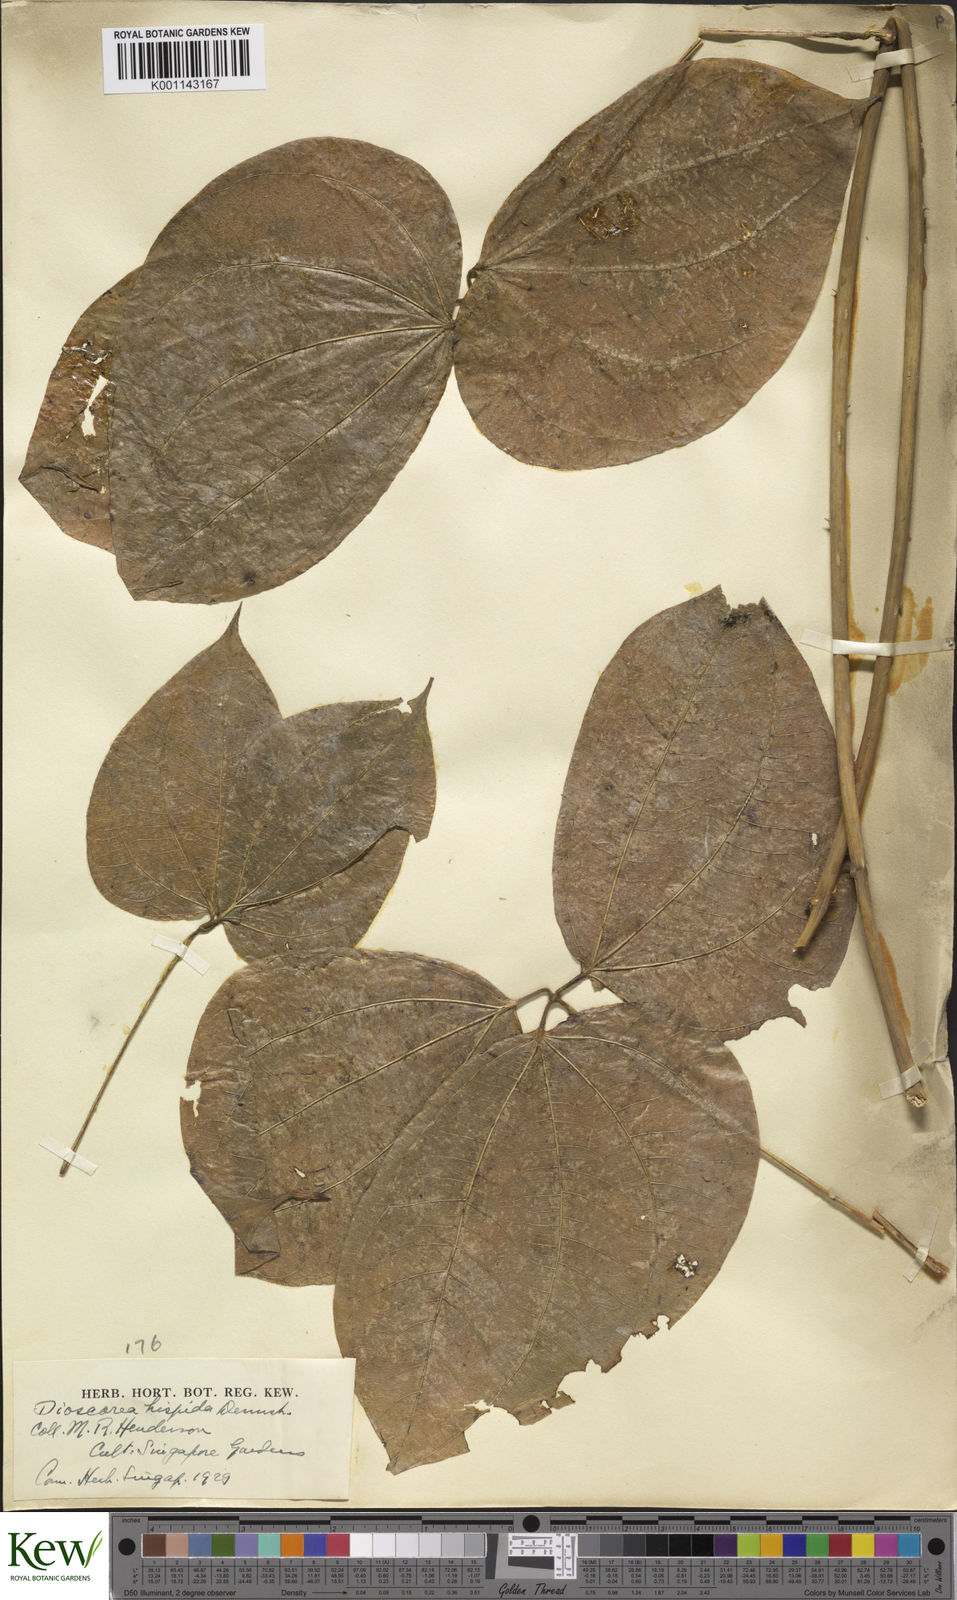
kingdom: Plantae
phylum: Tracheophyta
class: Liliopsida
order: Dioscoreales
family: Dioscoreaceae
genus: Dioscorea
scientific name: Dioscorea hispida
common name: Asiatic bitter yam
